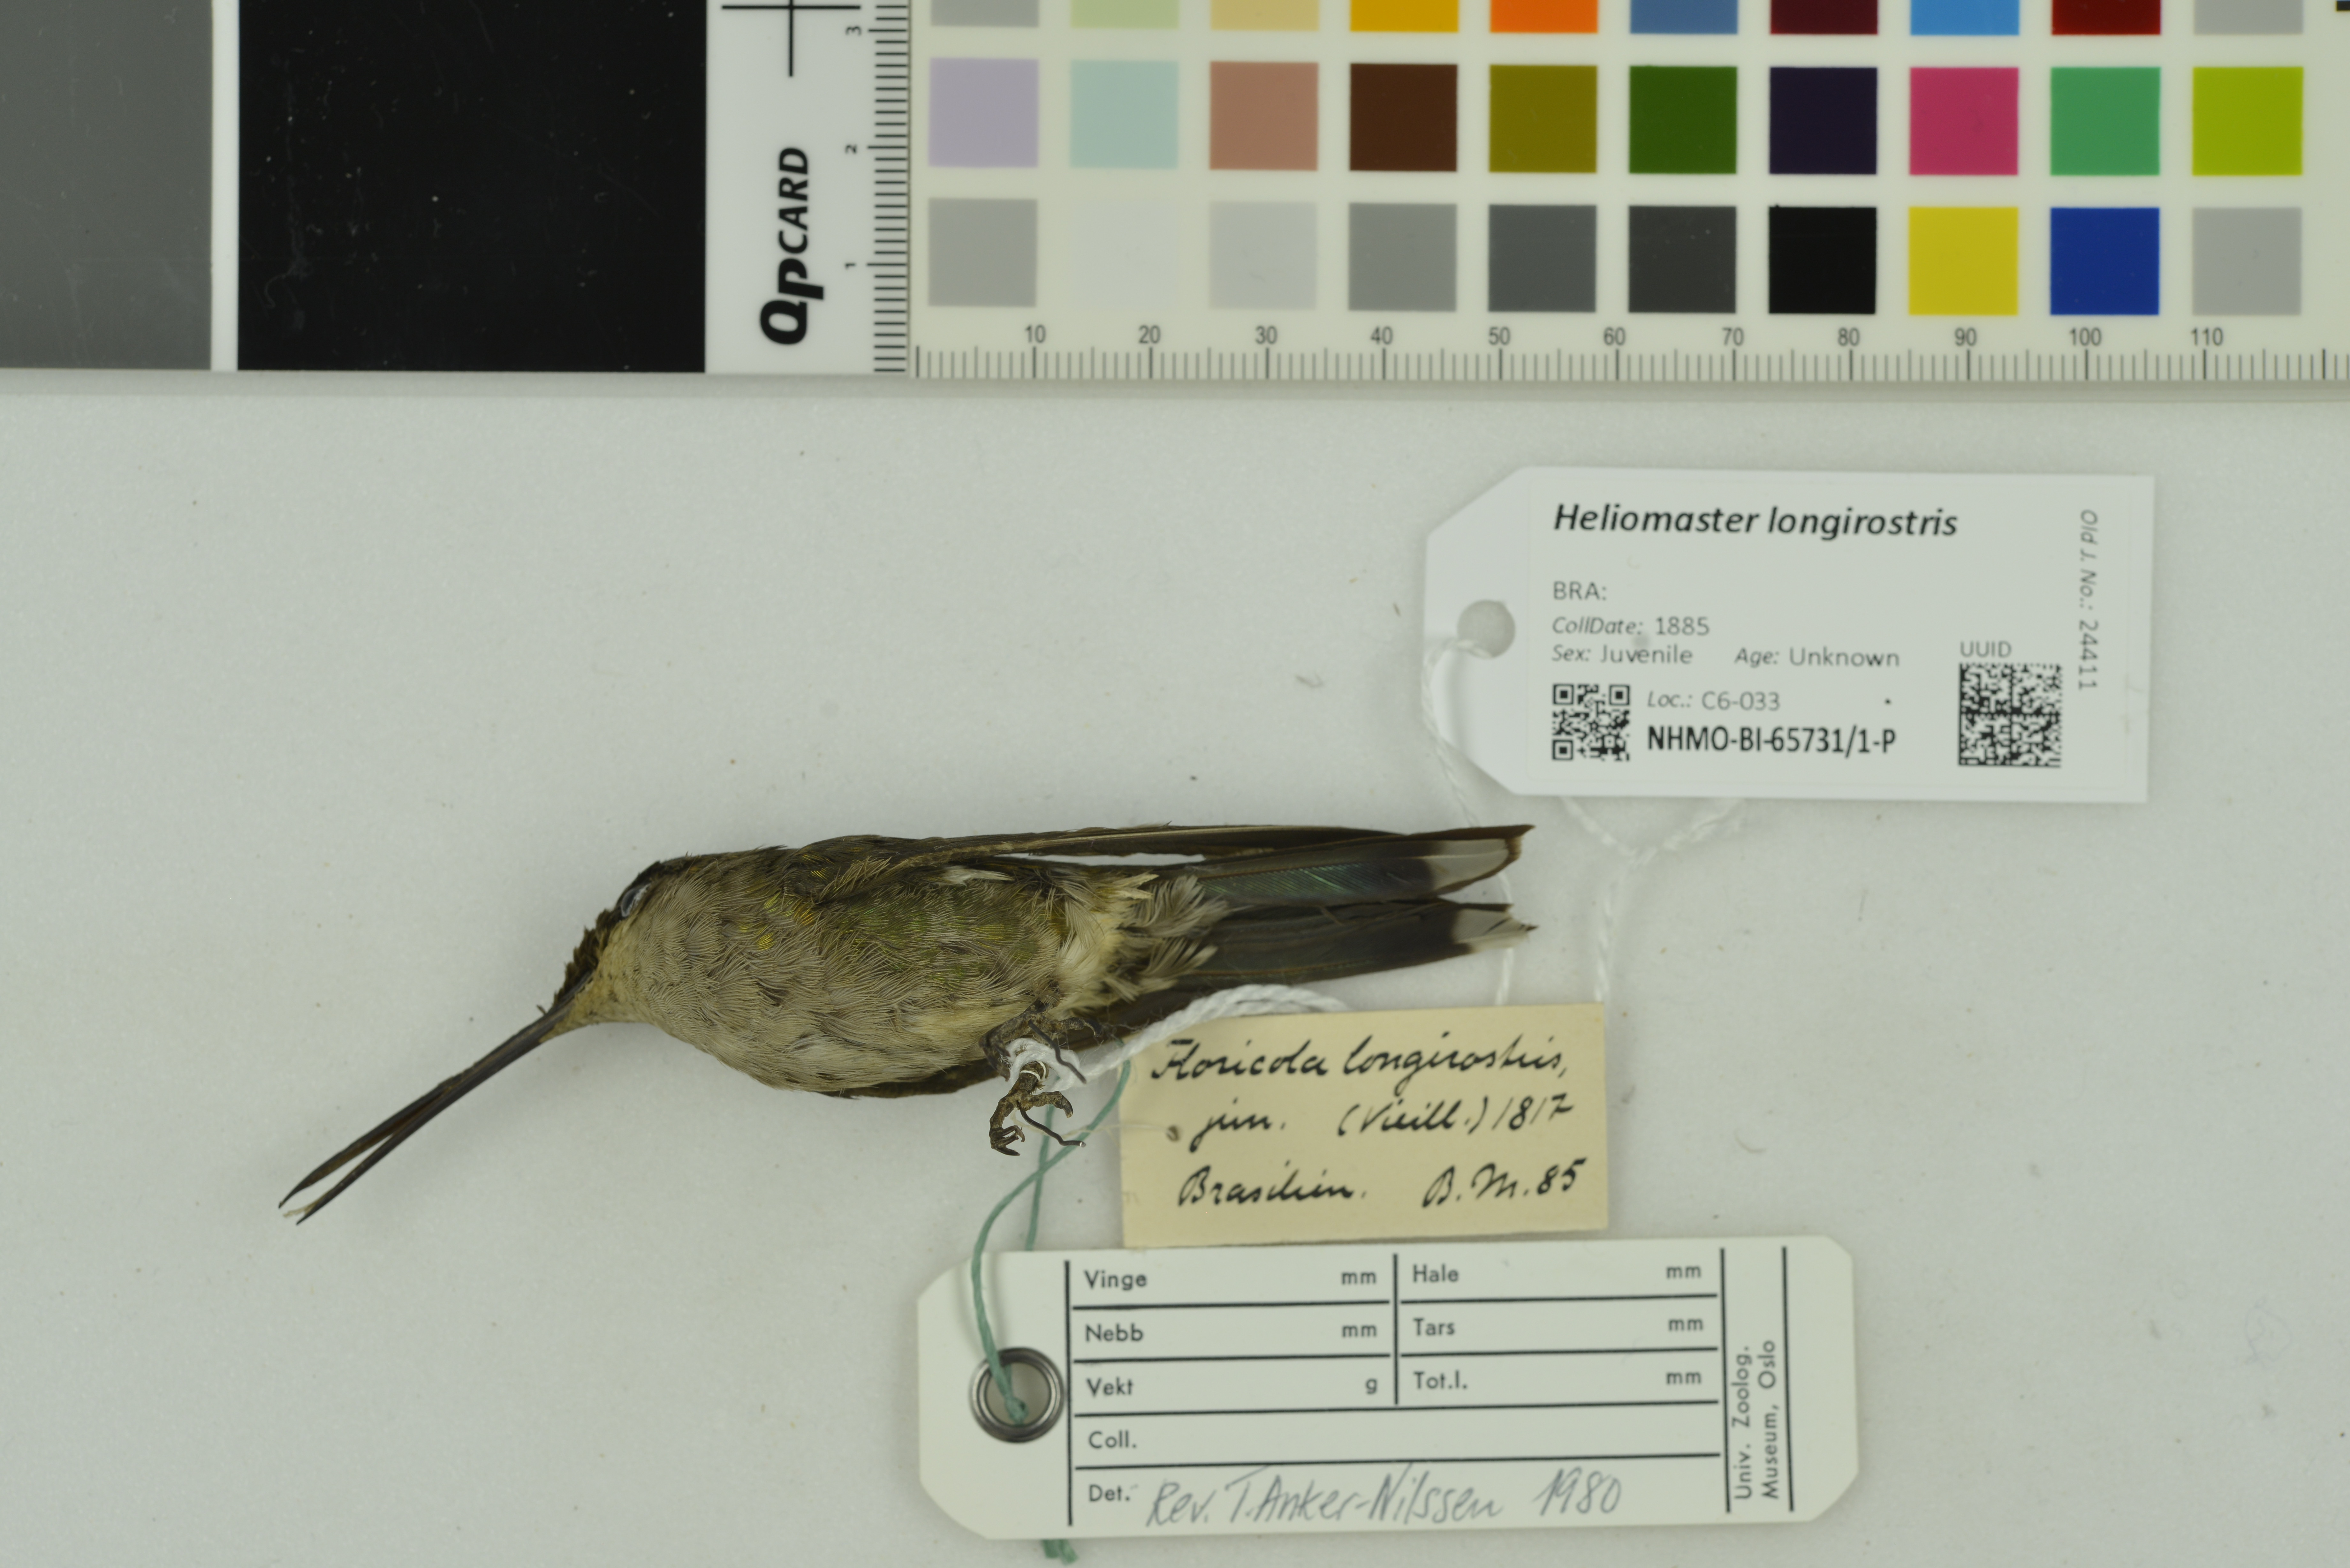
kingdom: Animalia
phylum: Chordata
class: Aves
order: Apodiformes
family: Trochilidae
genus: Heliomaster
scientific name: Heliomaster longirostris
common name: Long-billed starthroat
